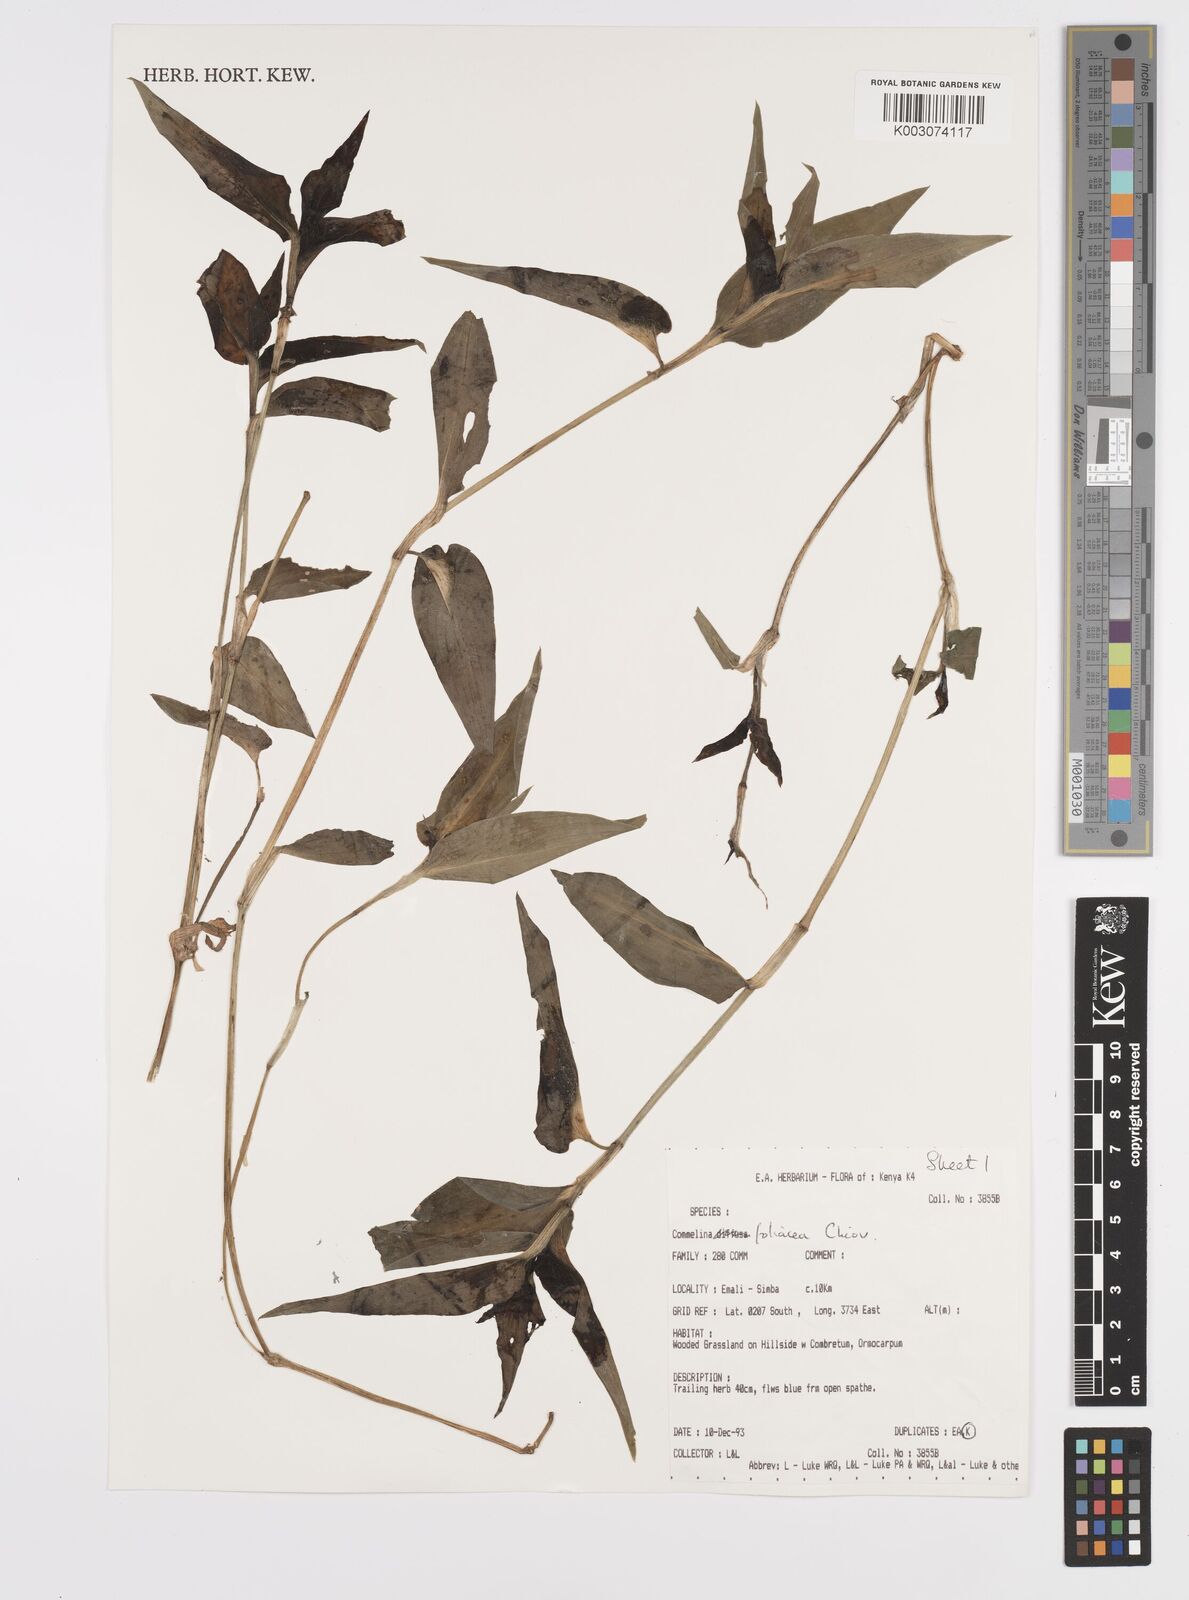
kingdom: Plantae
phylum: Tracheophyta
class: Liliopsida
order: Commelinales
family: Commelinaceae
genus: Commelina
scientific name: Commelina foliacea
